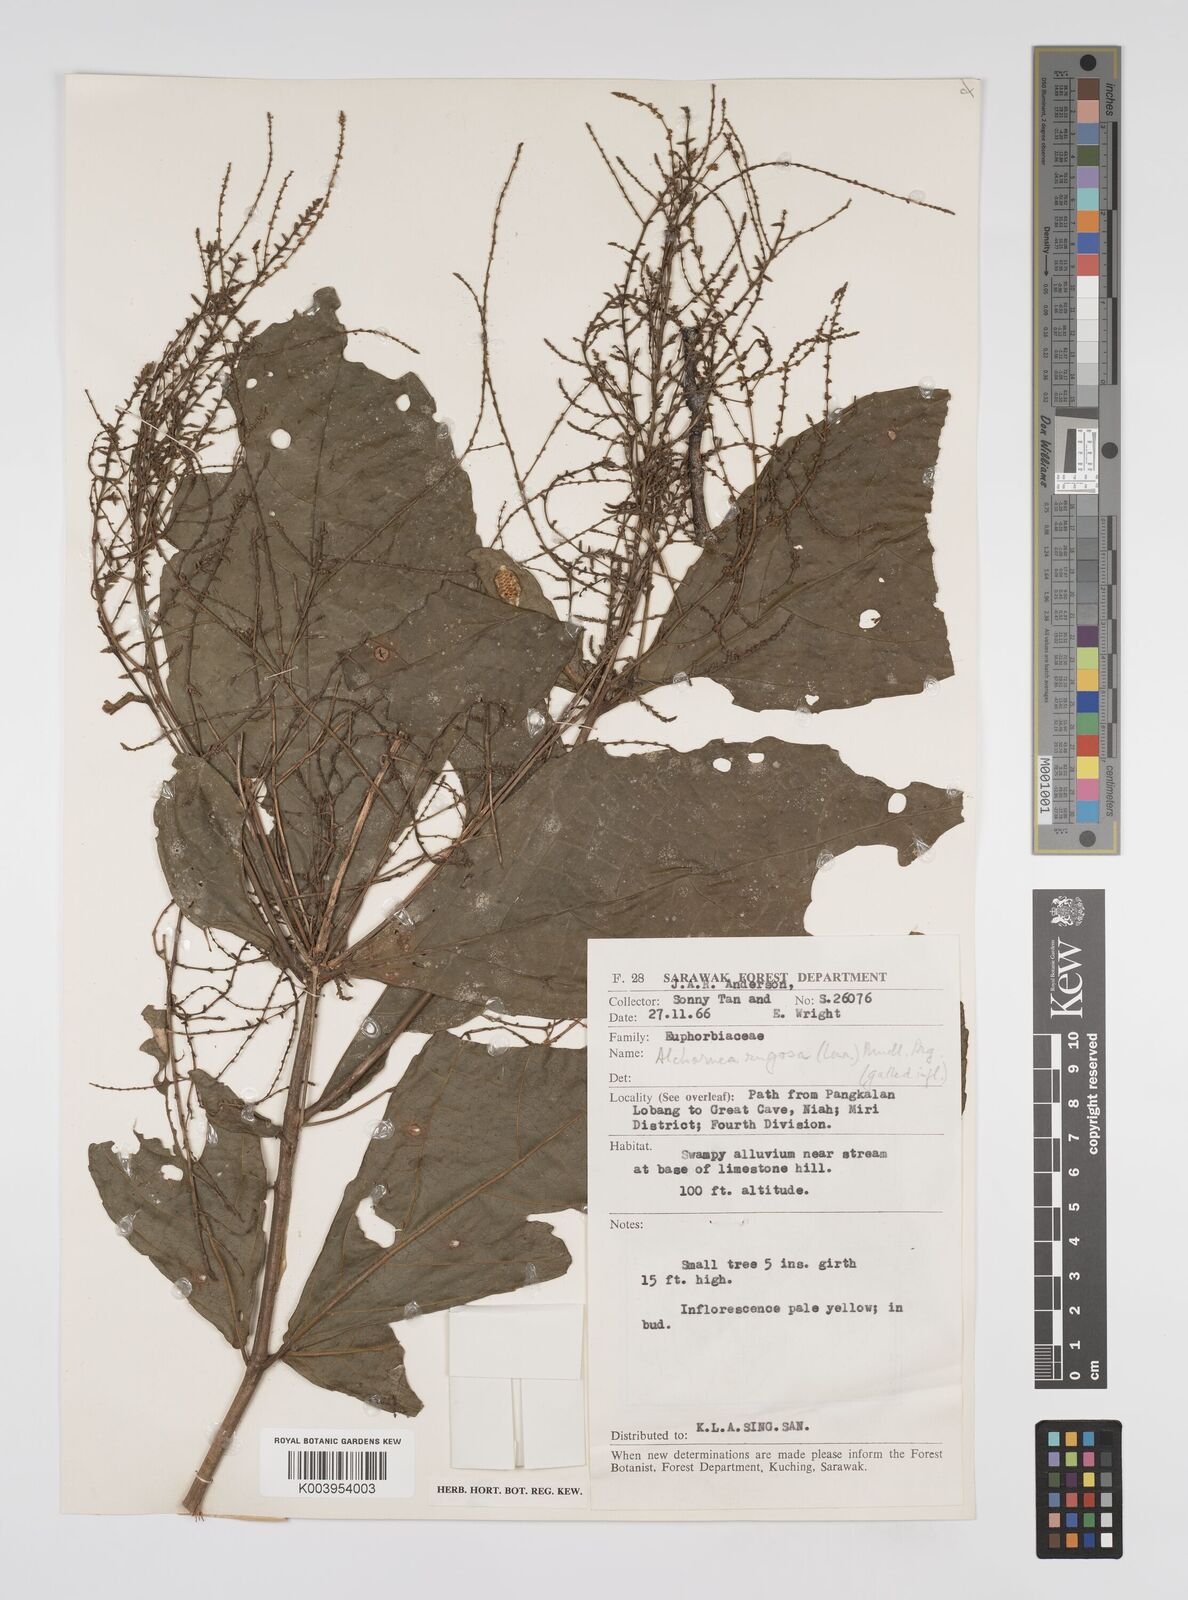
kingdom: Plantae
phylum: Tracheophyta
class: Magnoliopsida
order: Malpighiales
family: Euphorbiaceae
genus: Alchornea
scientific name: Alchornea rugosa
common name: Alchorntree
